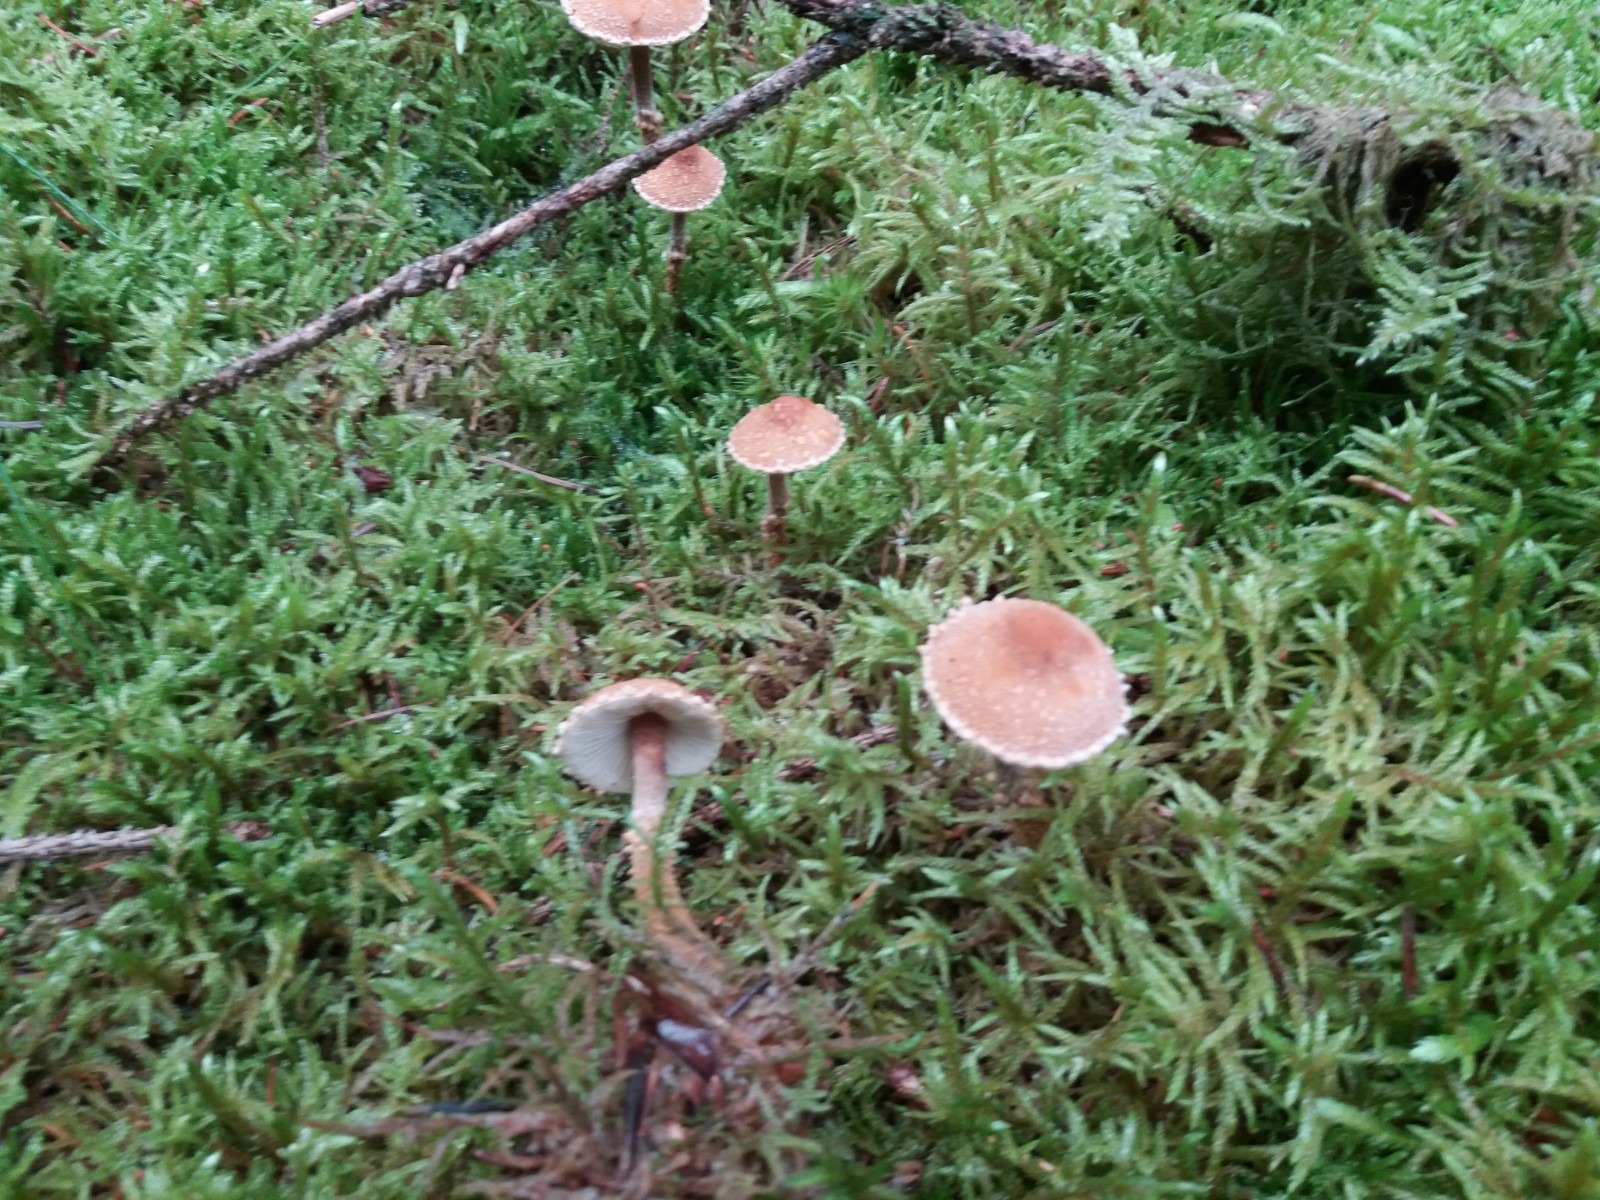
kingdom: Fungi
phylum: Basidiomycota
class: Agaricomycetes
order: Agaricales
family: Tricholomataceae
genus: Cystoderma
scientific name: Cystoderma jasonis
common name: Pine powdercap
